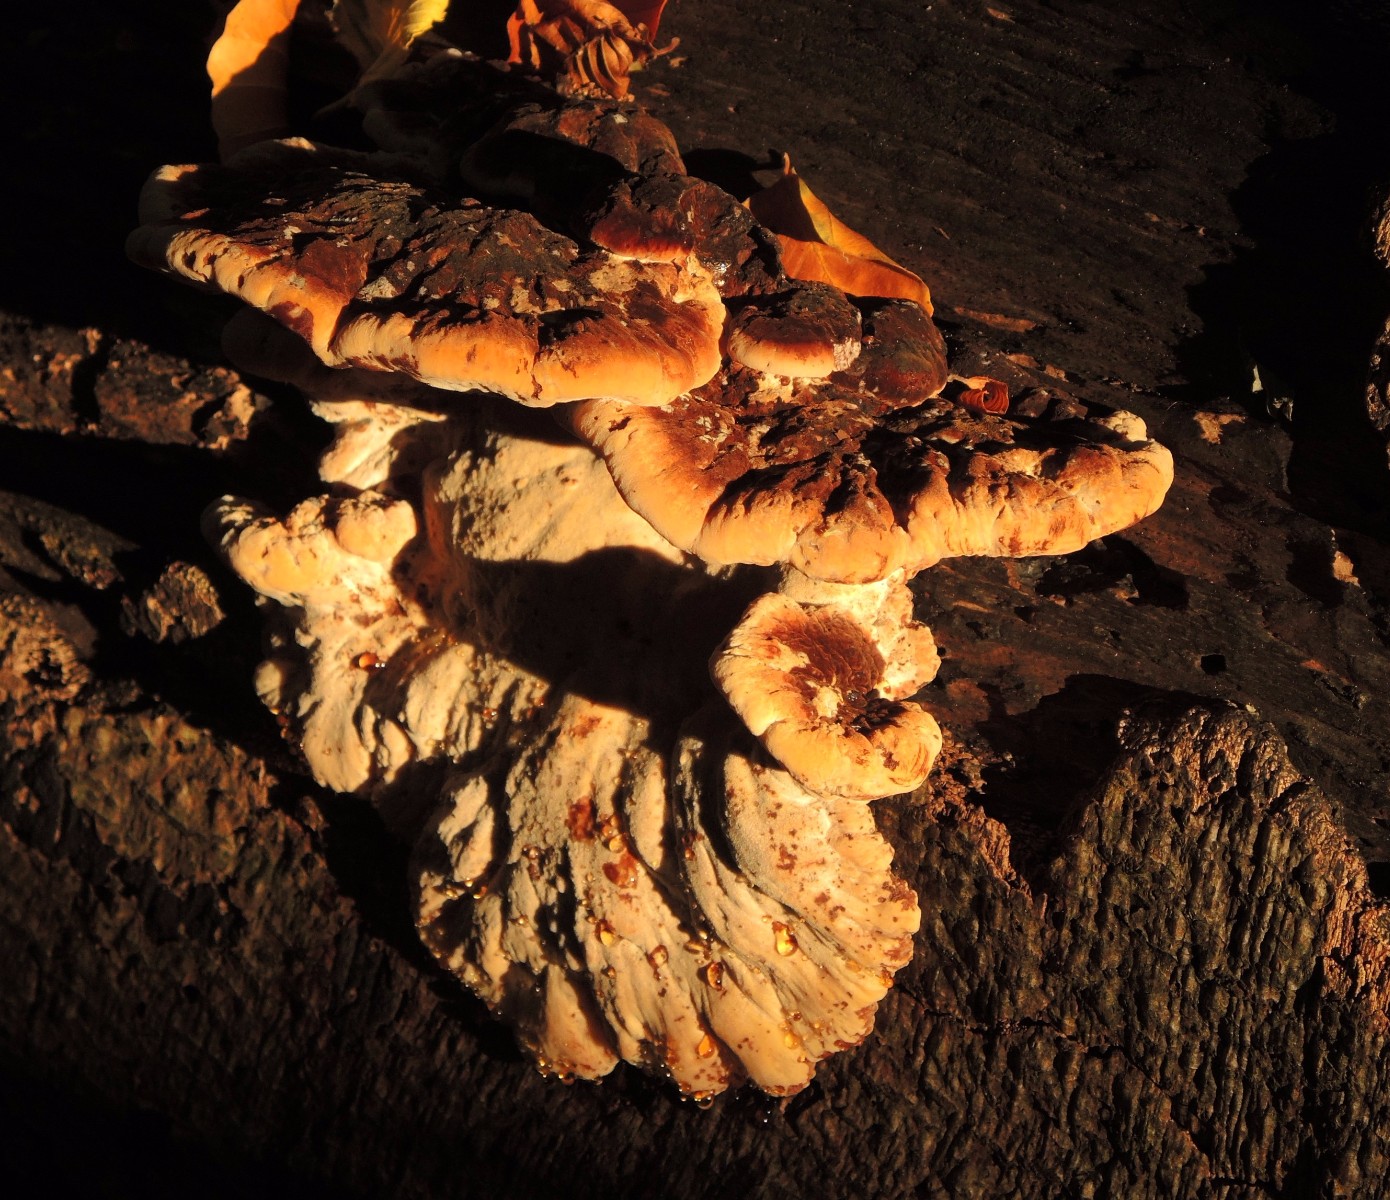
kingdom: Fungi
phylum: Basidiomycota
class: Agaricomycetes
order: Polyporales
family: Ischnodermataceae
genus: Ischnoderma
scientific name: Ischnoderma resinosum
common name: løv-tjæreporesvamp
